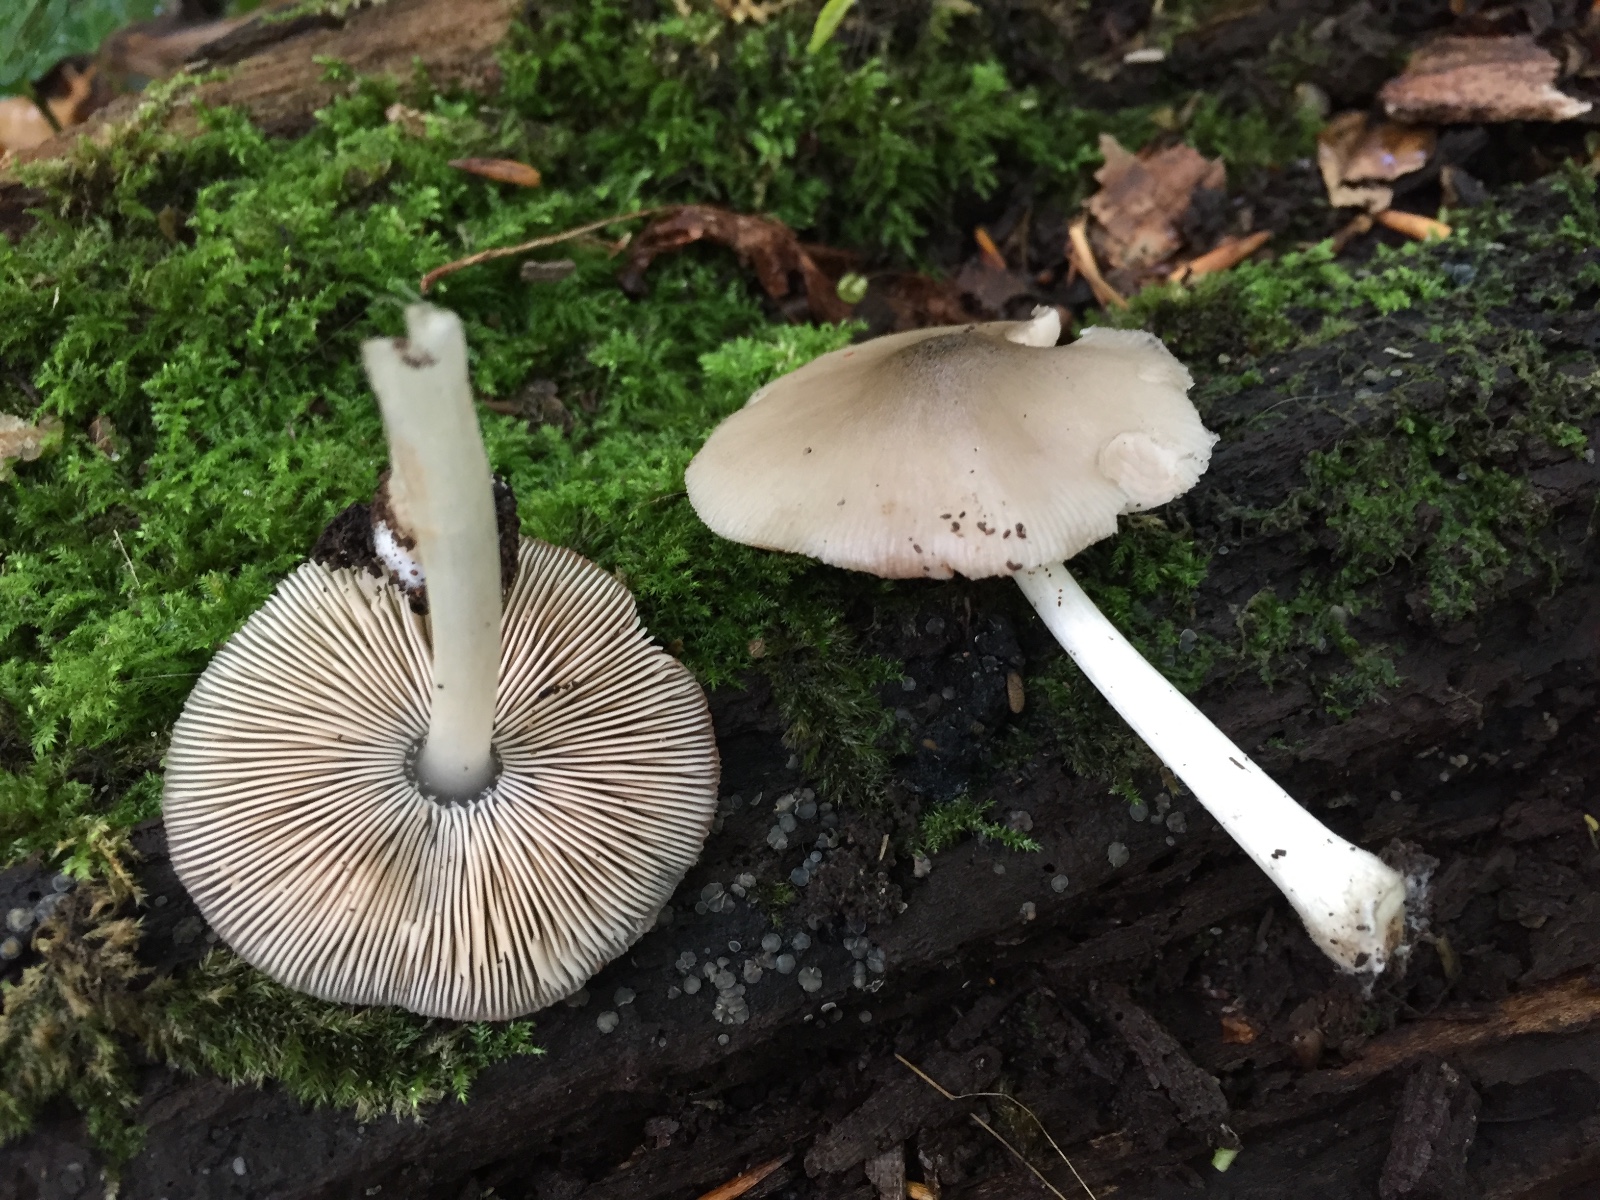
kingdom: Fungi
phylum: Basidiomycota
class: Agaricomycetes
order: Agaricales
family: Pluteaceae
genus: Pluteus
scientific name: Pluteus salicinus
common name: stiv skærmhat
